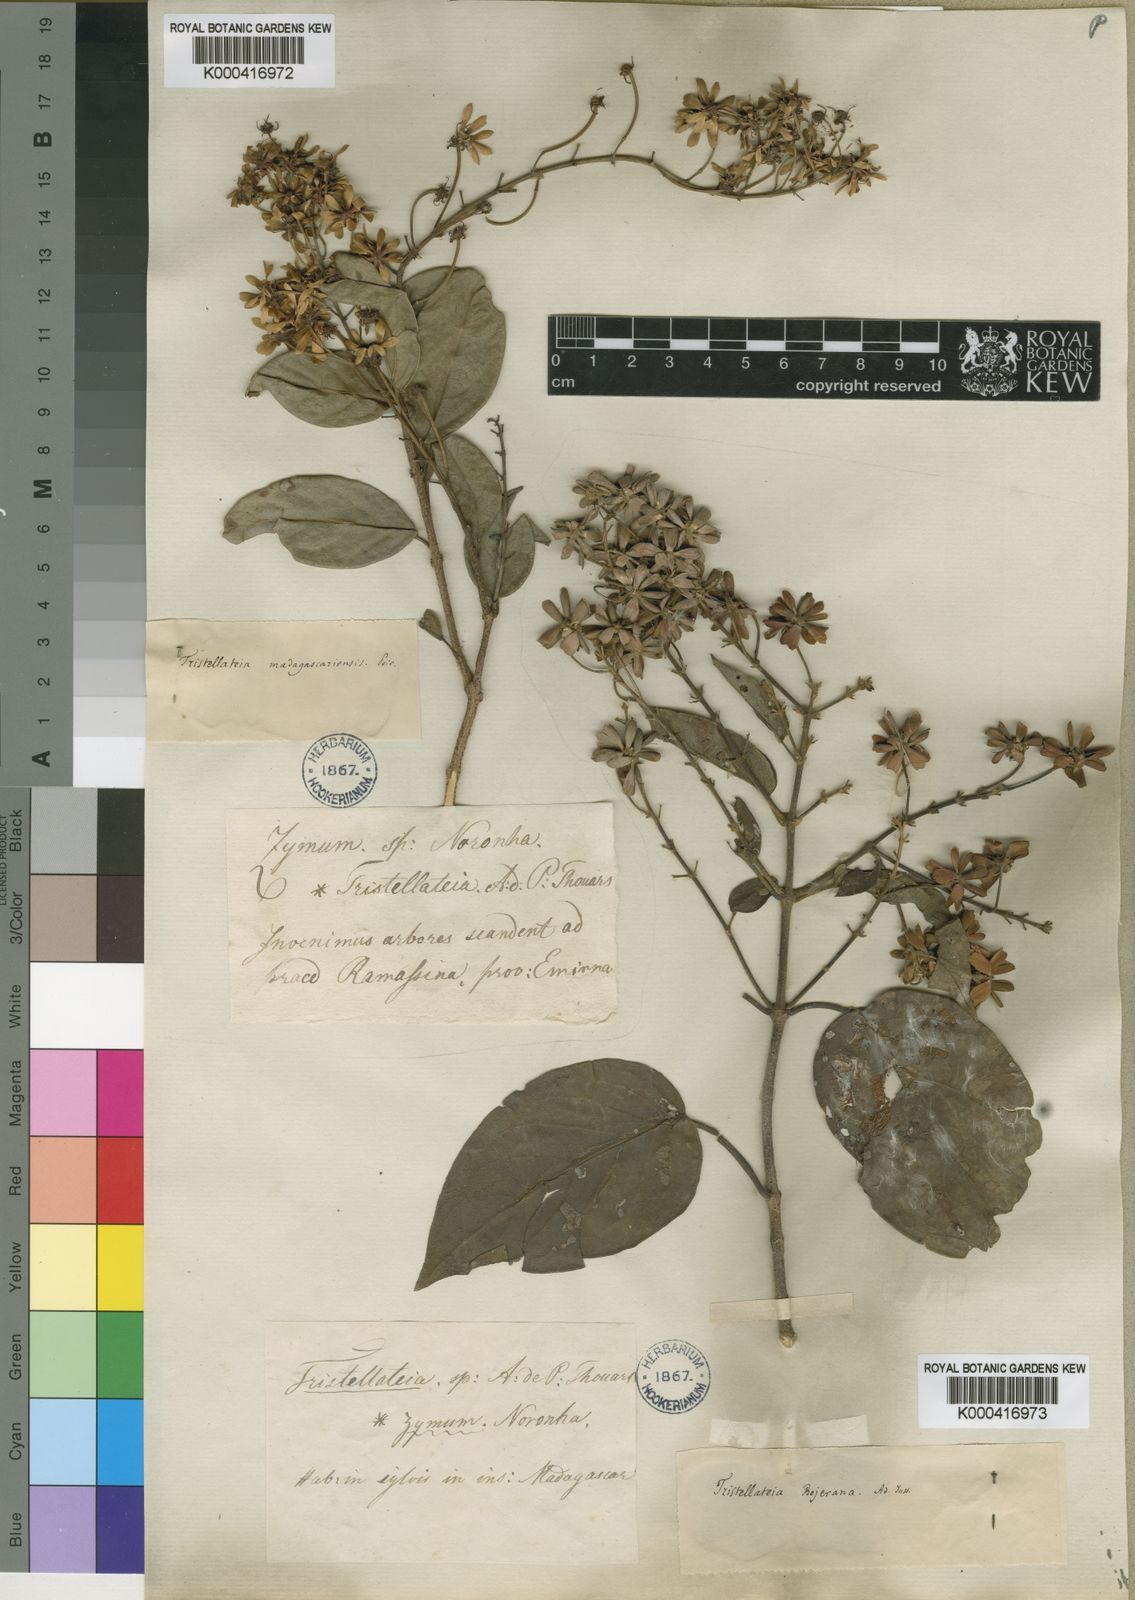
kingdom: Plantae
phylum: Tracheophyta
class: Magnoliopsida
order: Malpighiales
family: Malpighiaceae
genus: Tristellateia
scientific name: Tristellateia bojeriana
